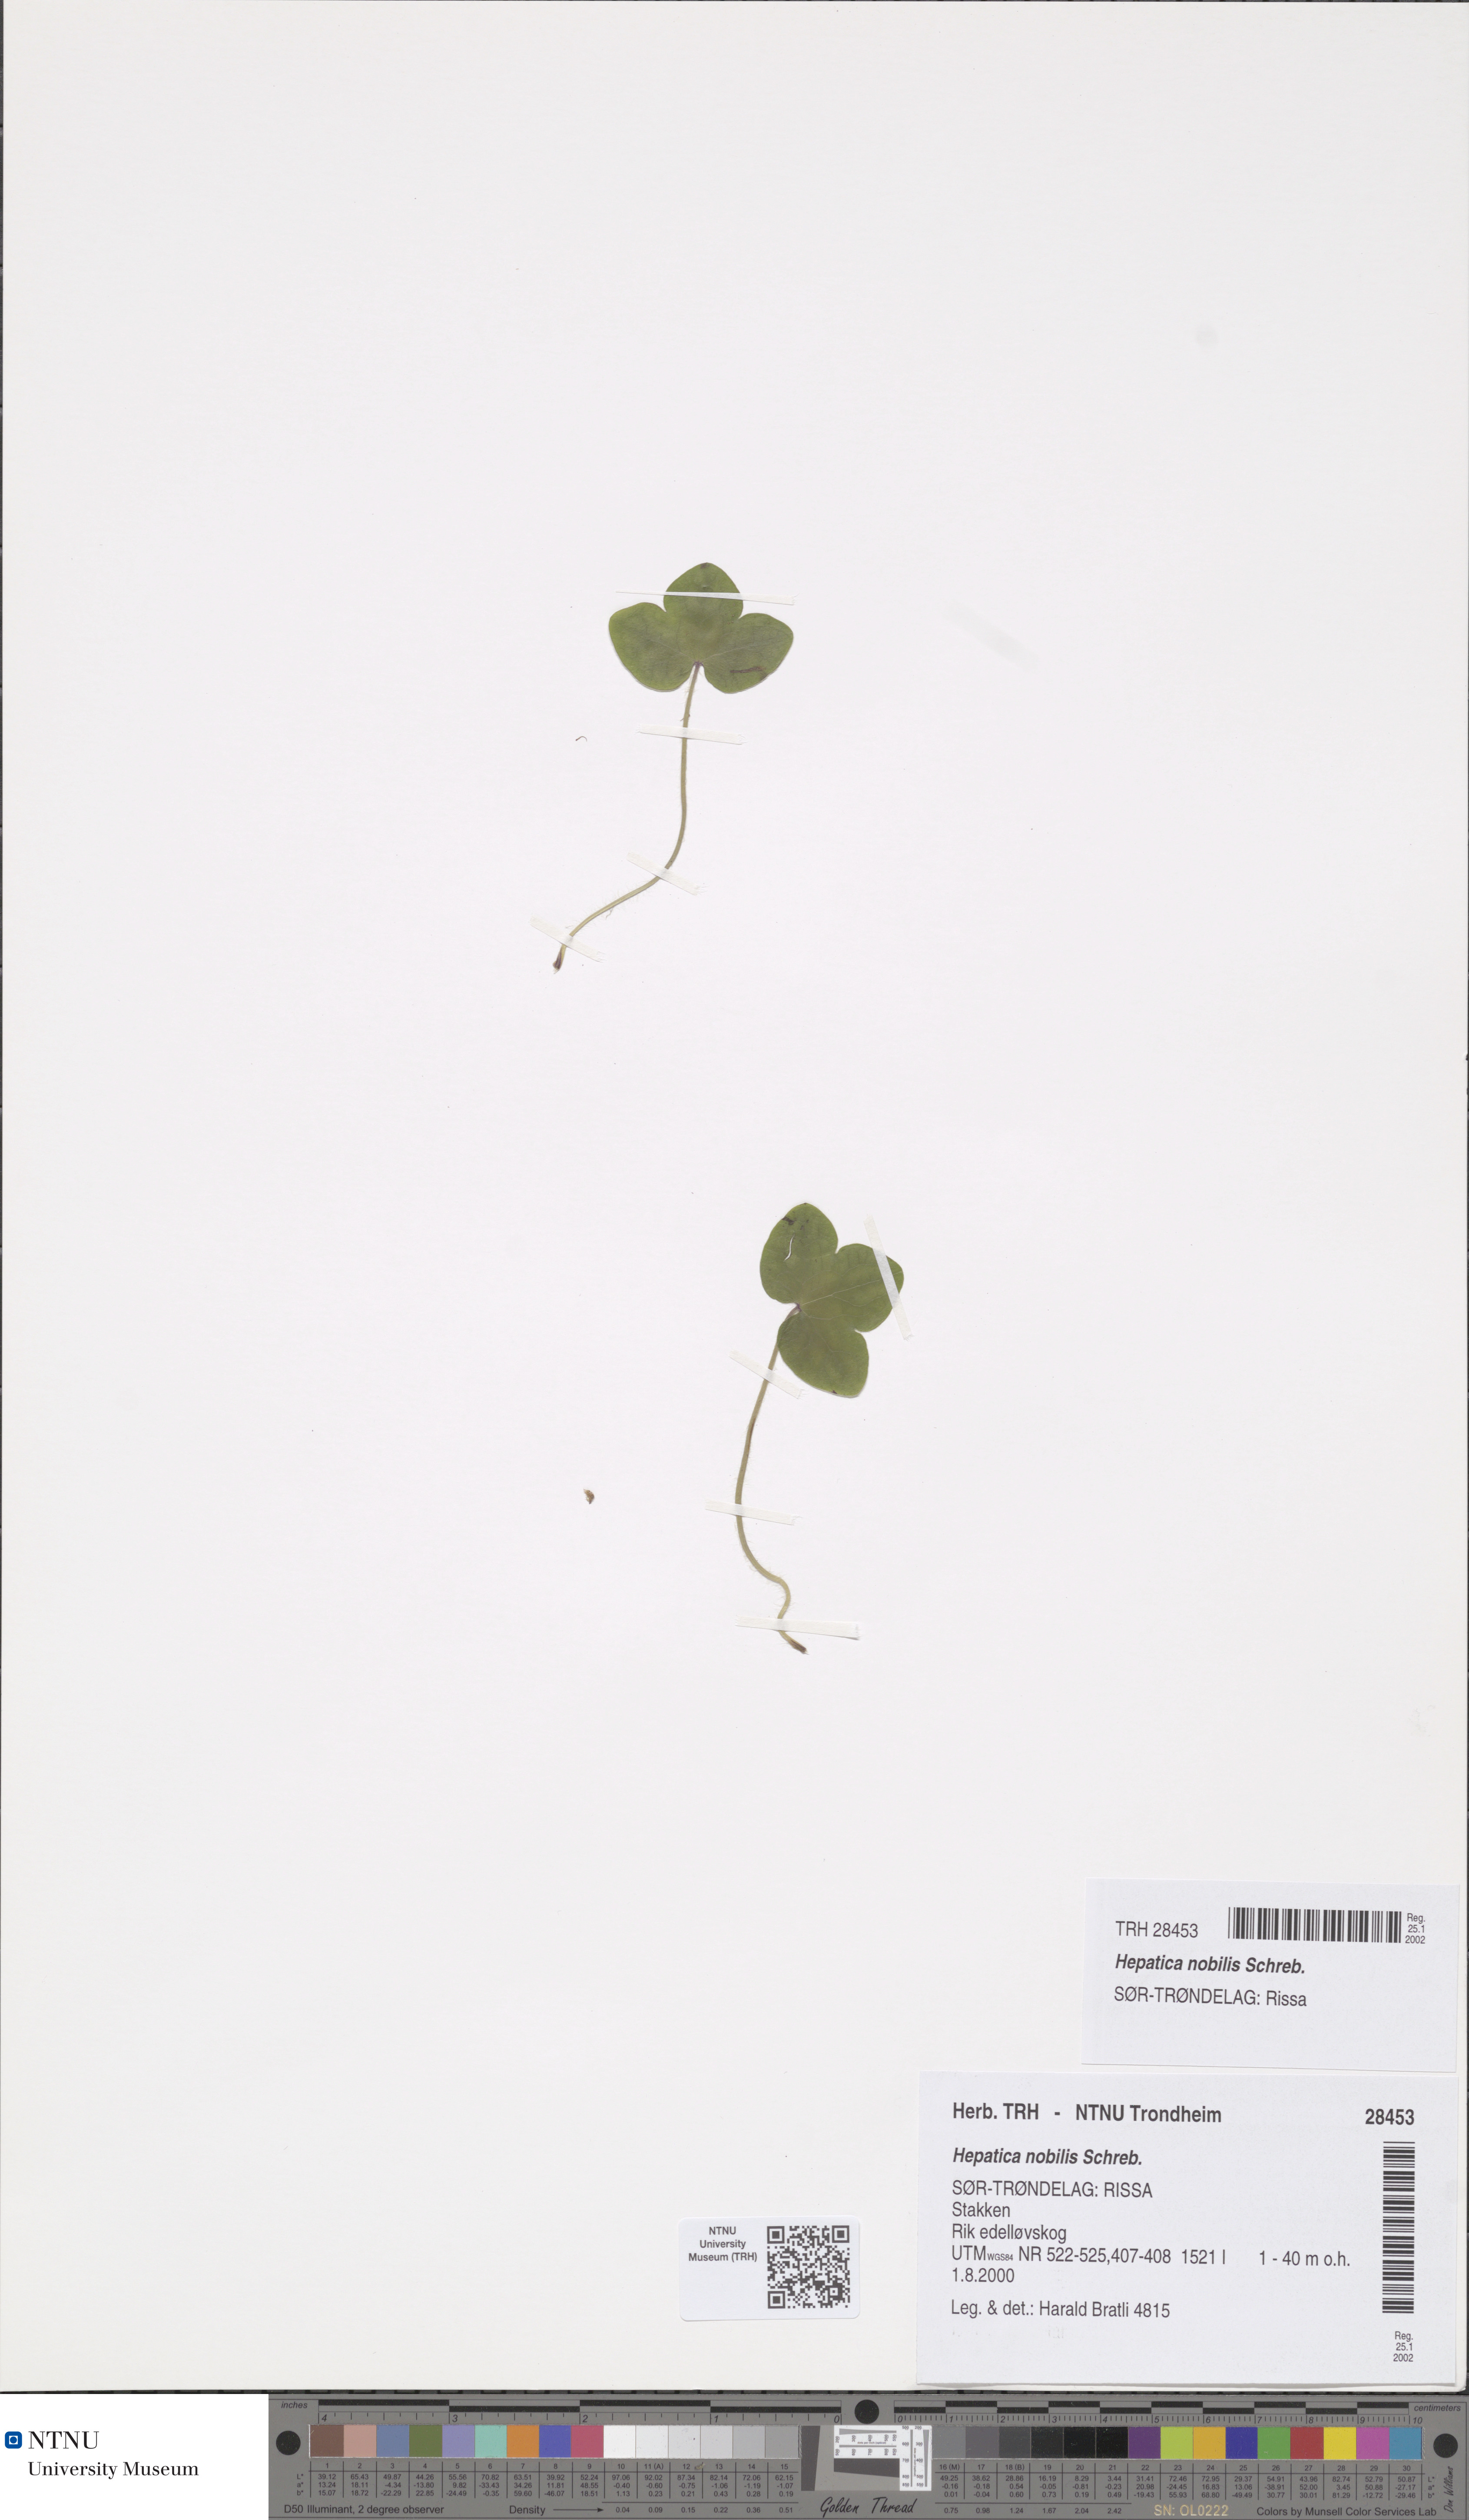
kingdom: Plantae
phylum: Tracheophyta
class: Magnoliopsida
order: Ranunculales
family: Ranunculaceae
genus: Hepatica
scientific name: Hepatica nobilis
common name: Liverleaf
